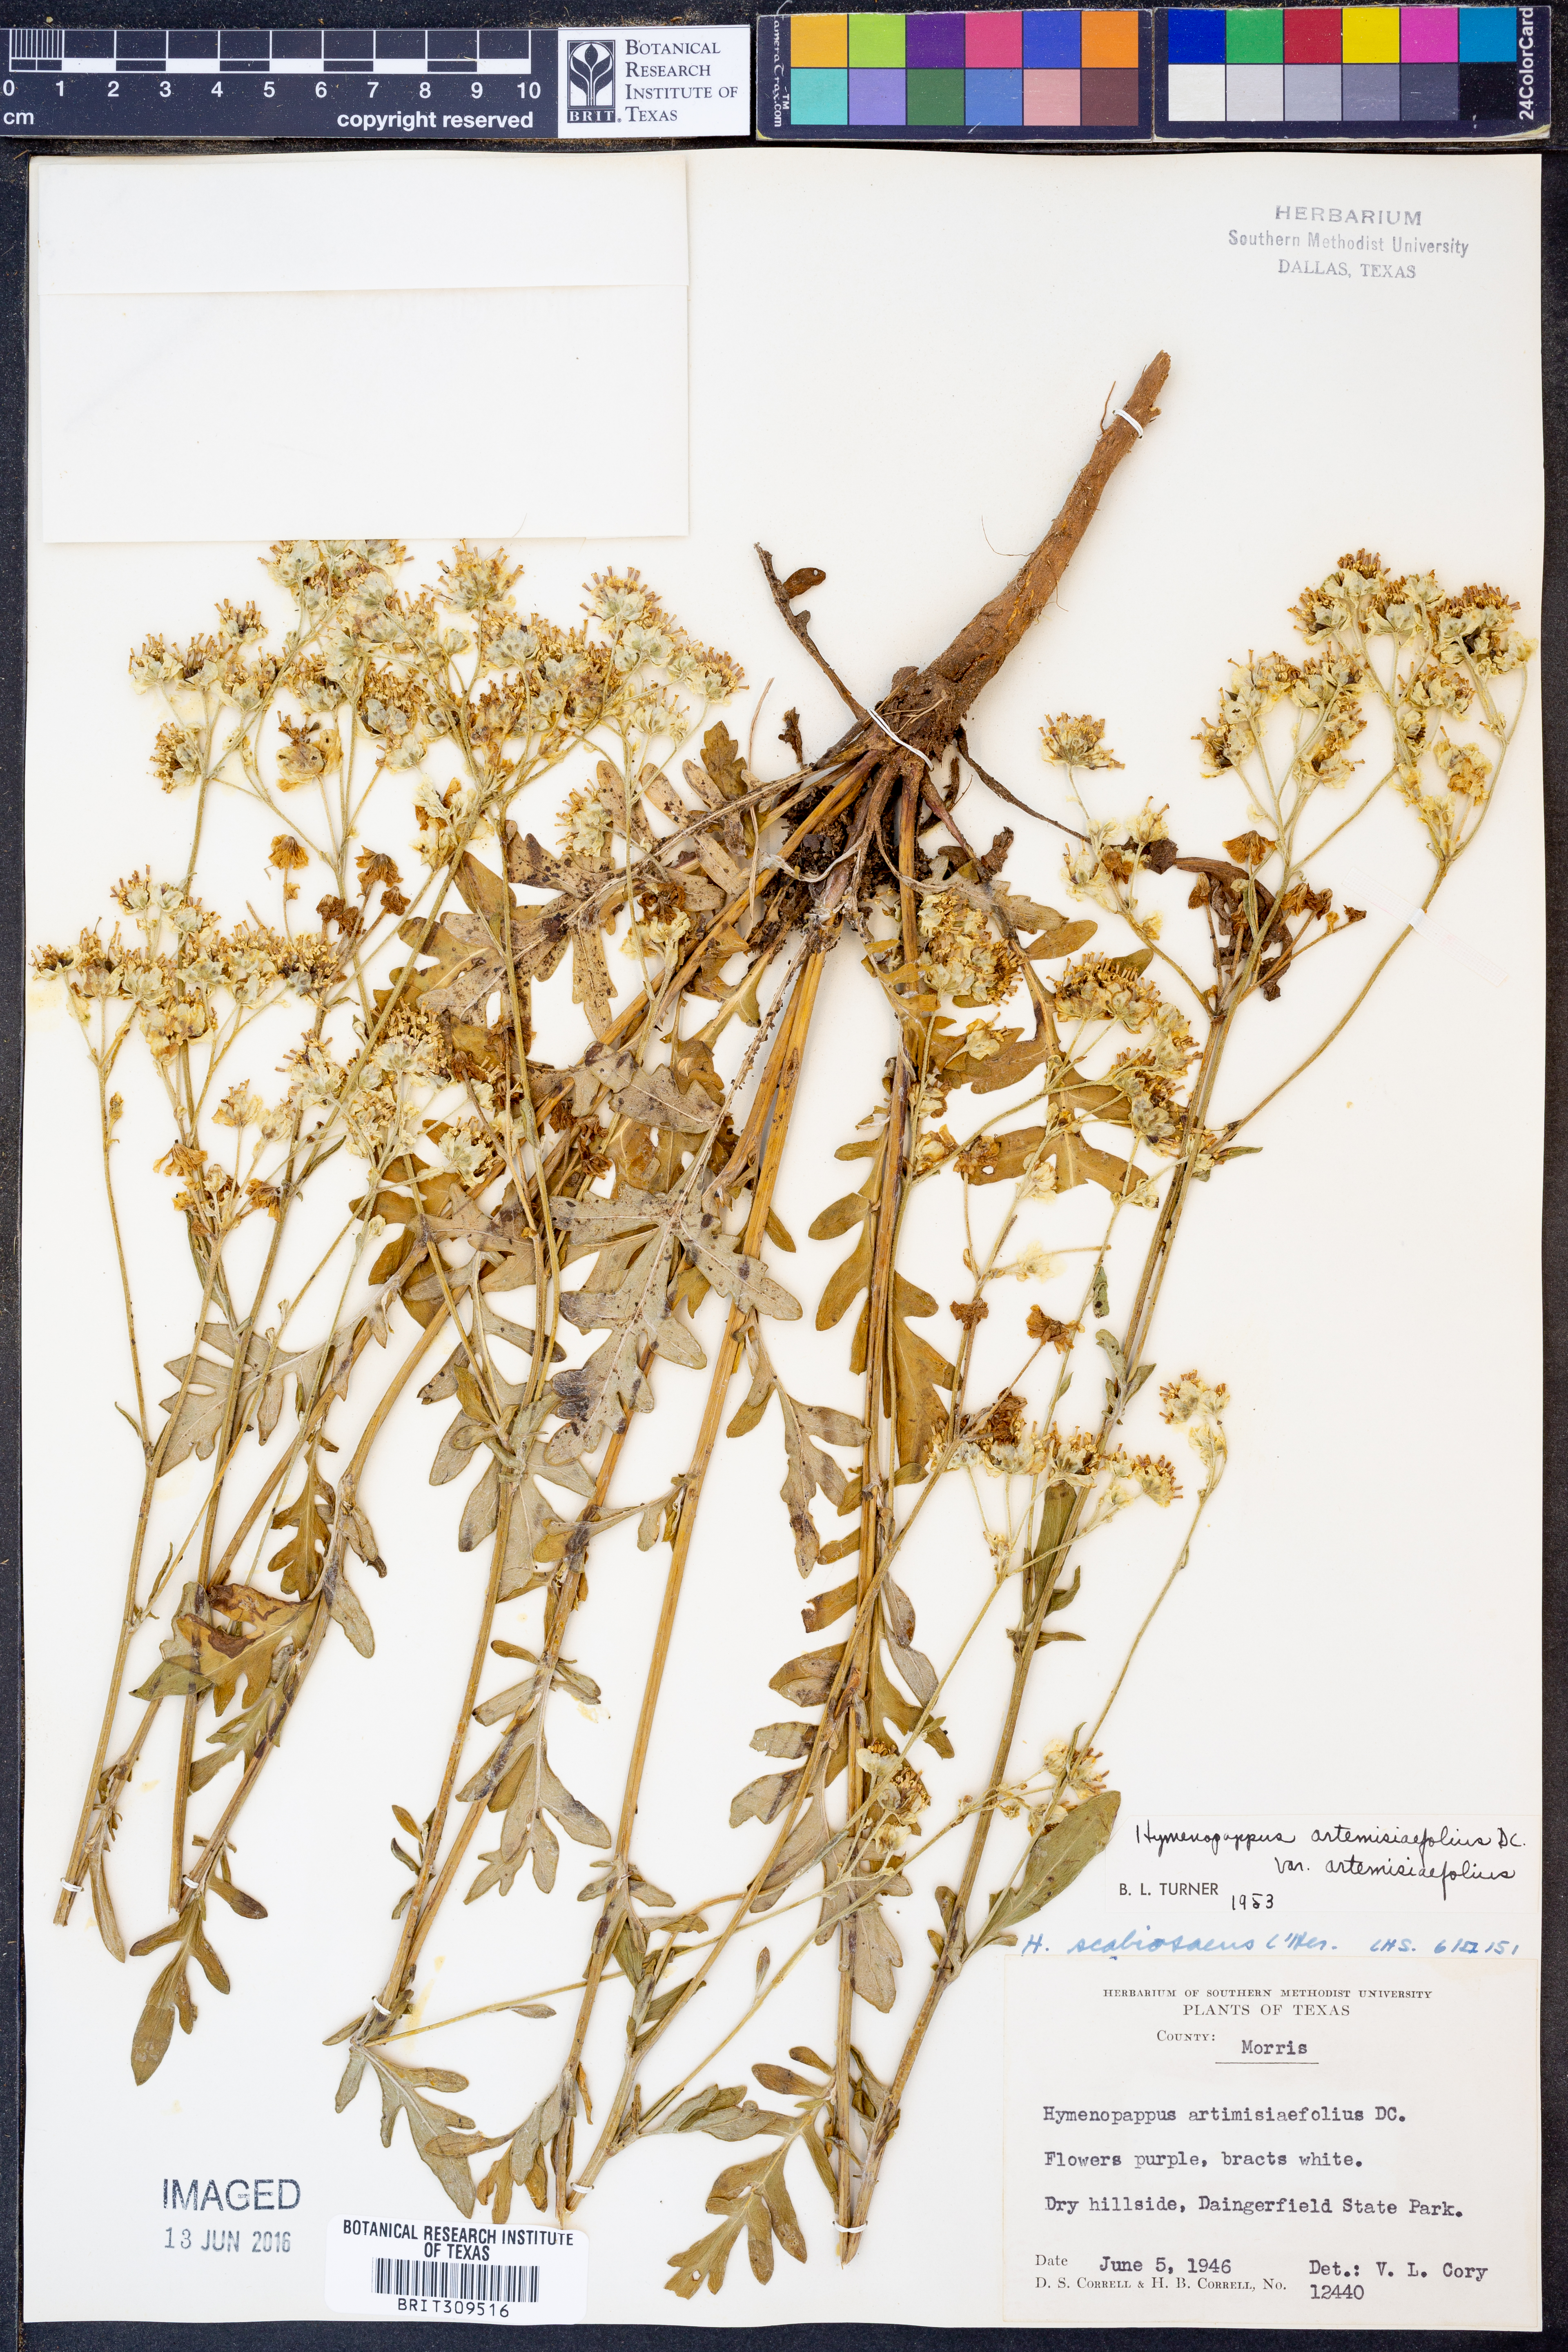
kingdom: Plantae
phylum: Tracheophyta
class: Magnoliopsida
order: Asterales
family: Asteraceae
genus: Hymenopappus
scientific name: Hymenopappus artemisiifolius
